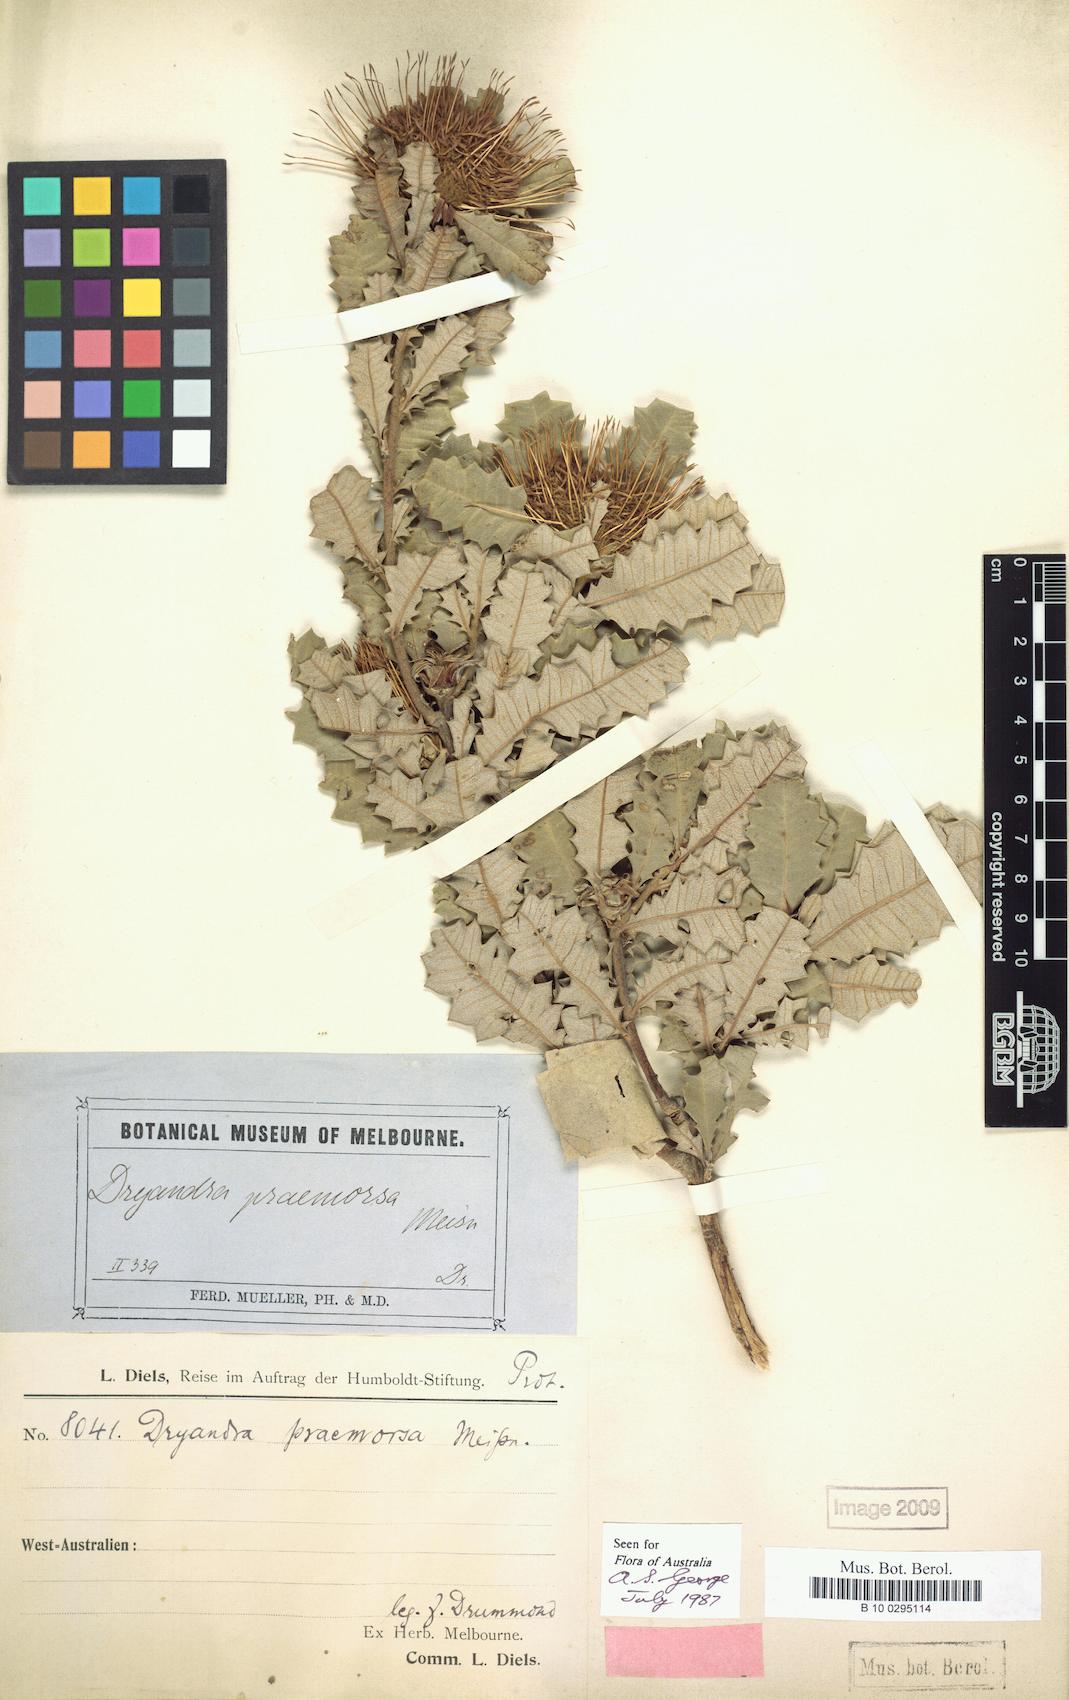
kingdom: Plantae
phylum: Tracheophyta
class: Magnoliopsida
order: Proteales
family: Proteaceae
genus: Banksia
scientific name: Banksia undata
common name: Cut-leaf dryandra
